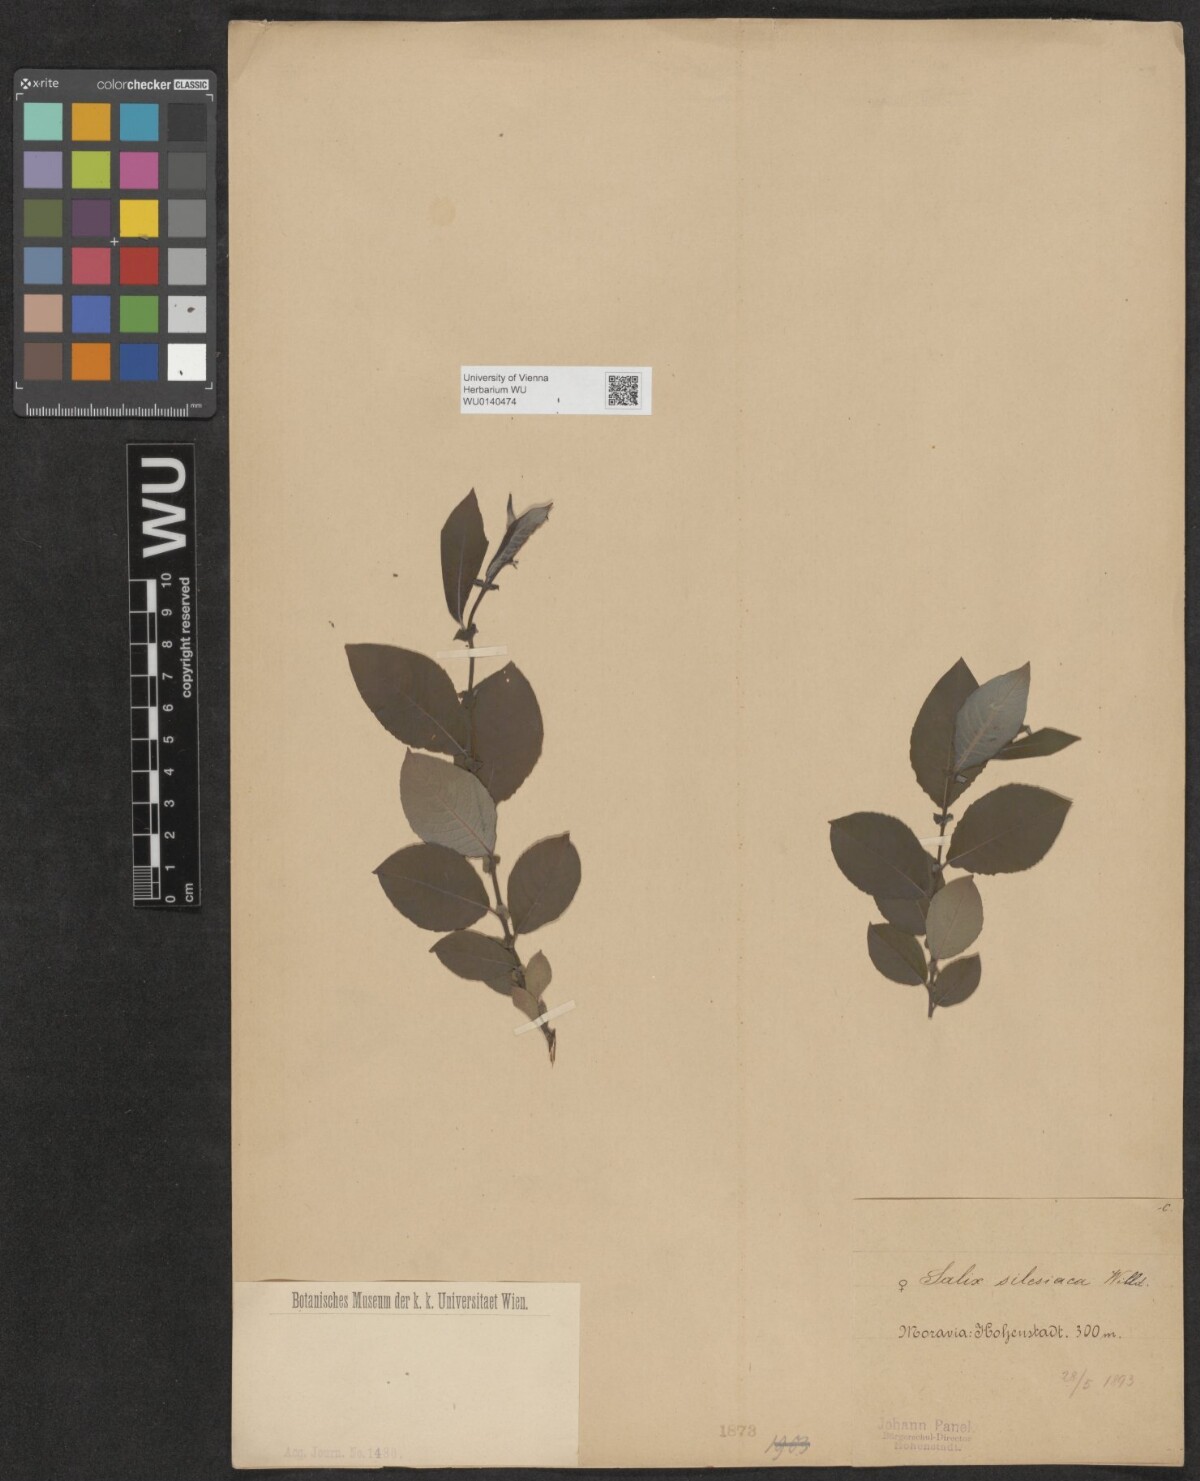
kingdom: Plantae
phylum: Tracheophyta
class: Magnoliopsida
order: Malpighiales
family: Salicaceae
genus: Salix
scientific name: Salix silesiaca
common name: Silesian willow
